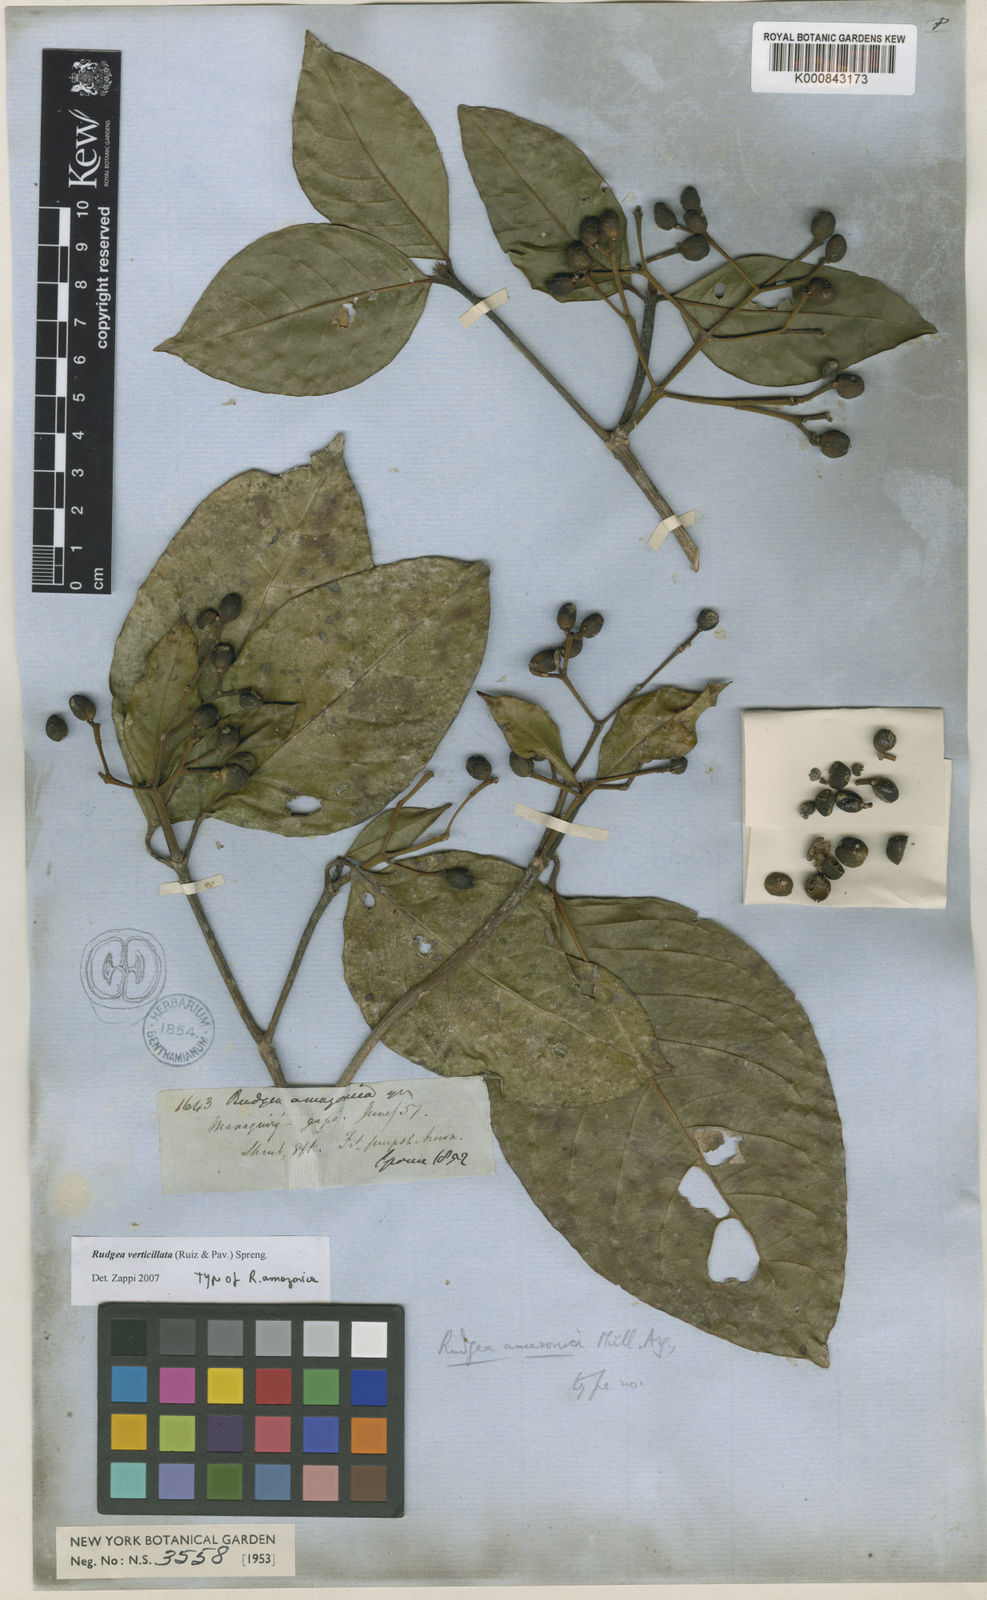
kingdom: Plantae
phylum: Tracheophyta
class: Magnoliopsida
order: Gentianales
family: Rubiaceae
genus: Rudgea
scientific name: Rudgea verticillata
